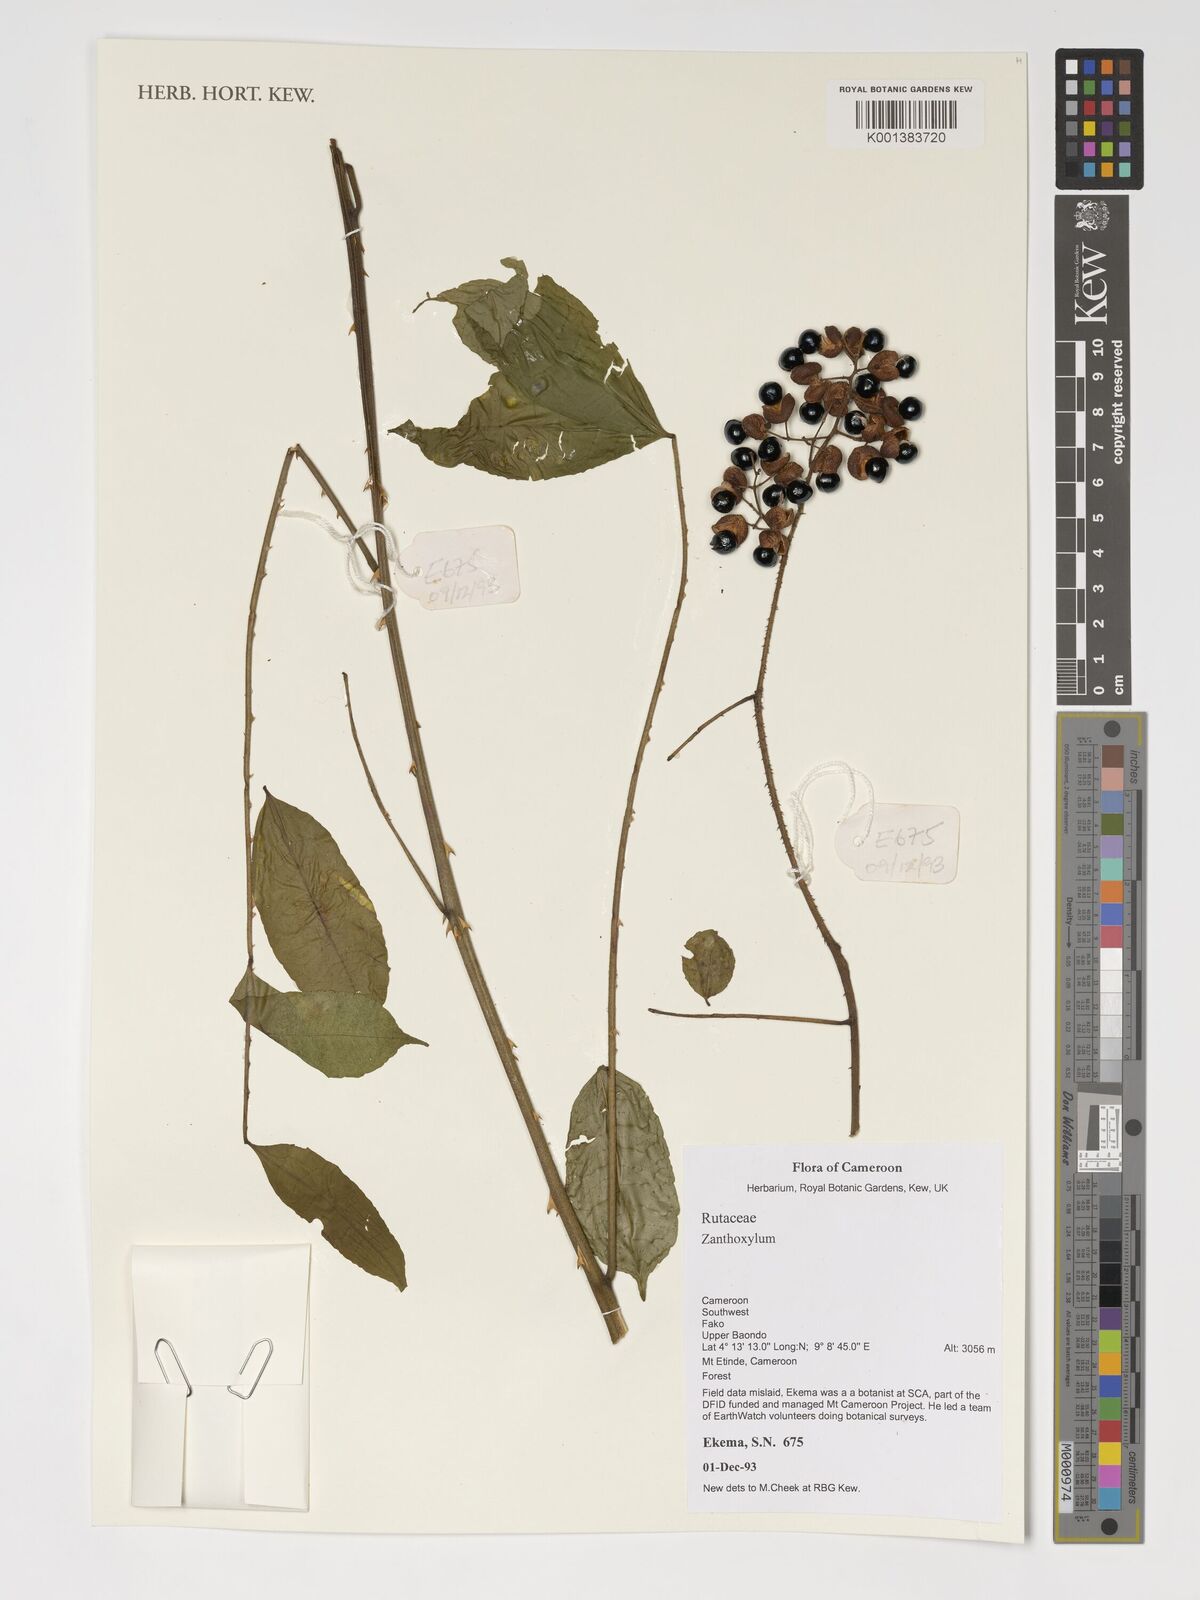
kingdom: Plantae
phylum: Tracheophyta
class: Magnoliopsida
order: Sapindales
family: Rutaceae
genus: Zanthoxylum
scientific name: Zanthoxylum
